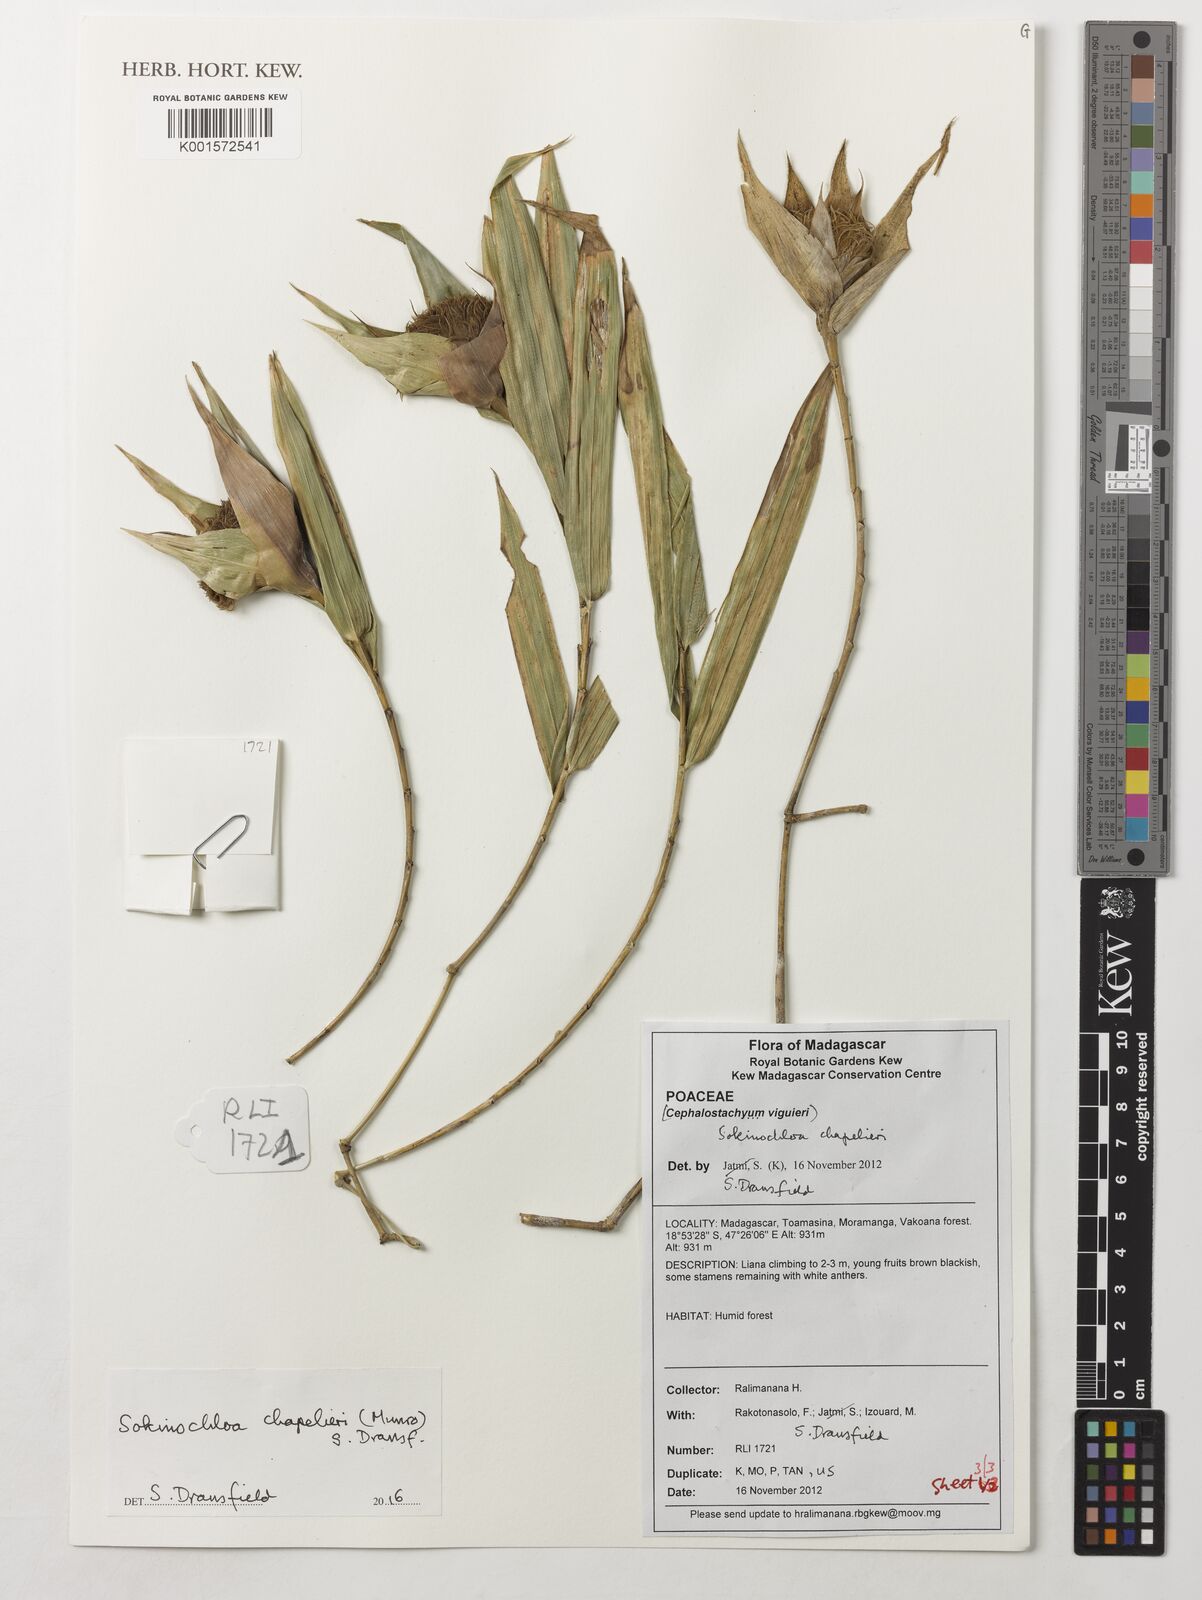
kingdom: Plantae
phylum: Tracheophyta
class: Liliopsida
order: Poales
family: Poaceae
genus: Sokinochloa
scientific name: Sokinochloa chapelieri
